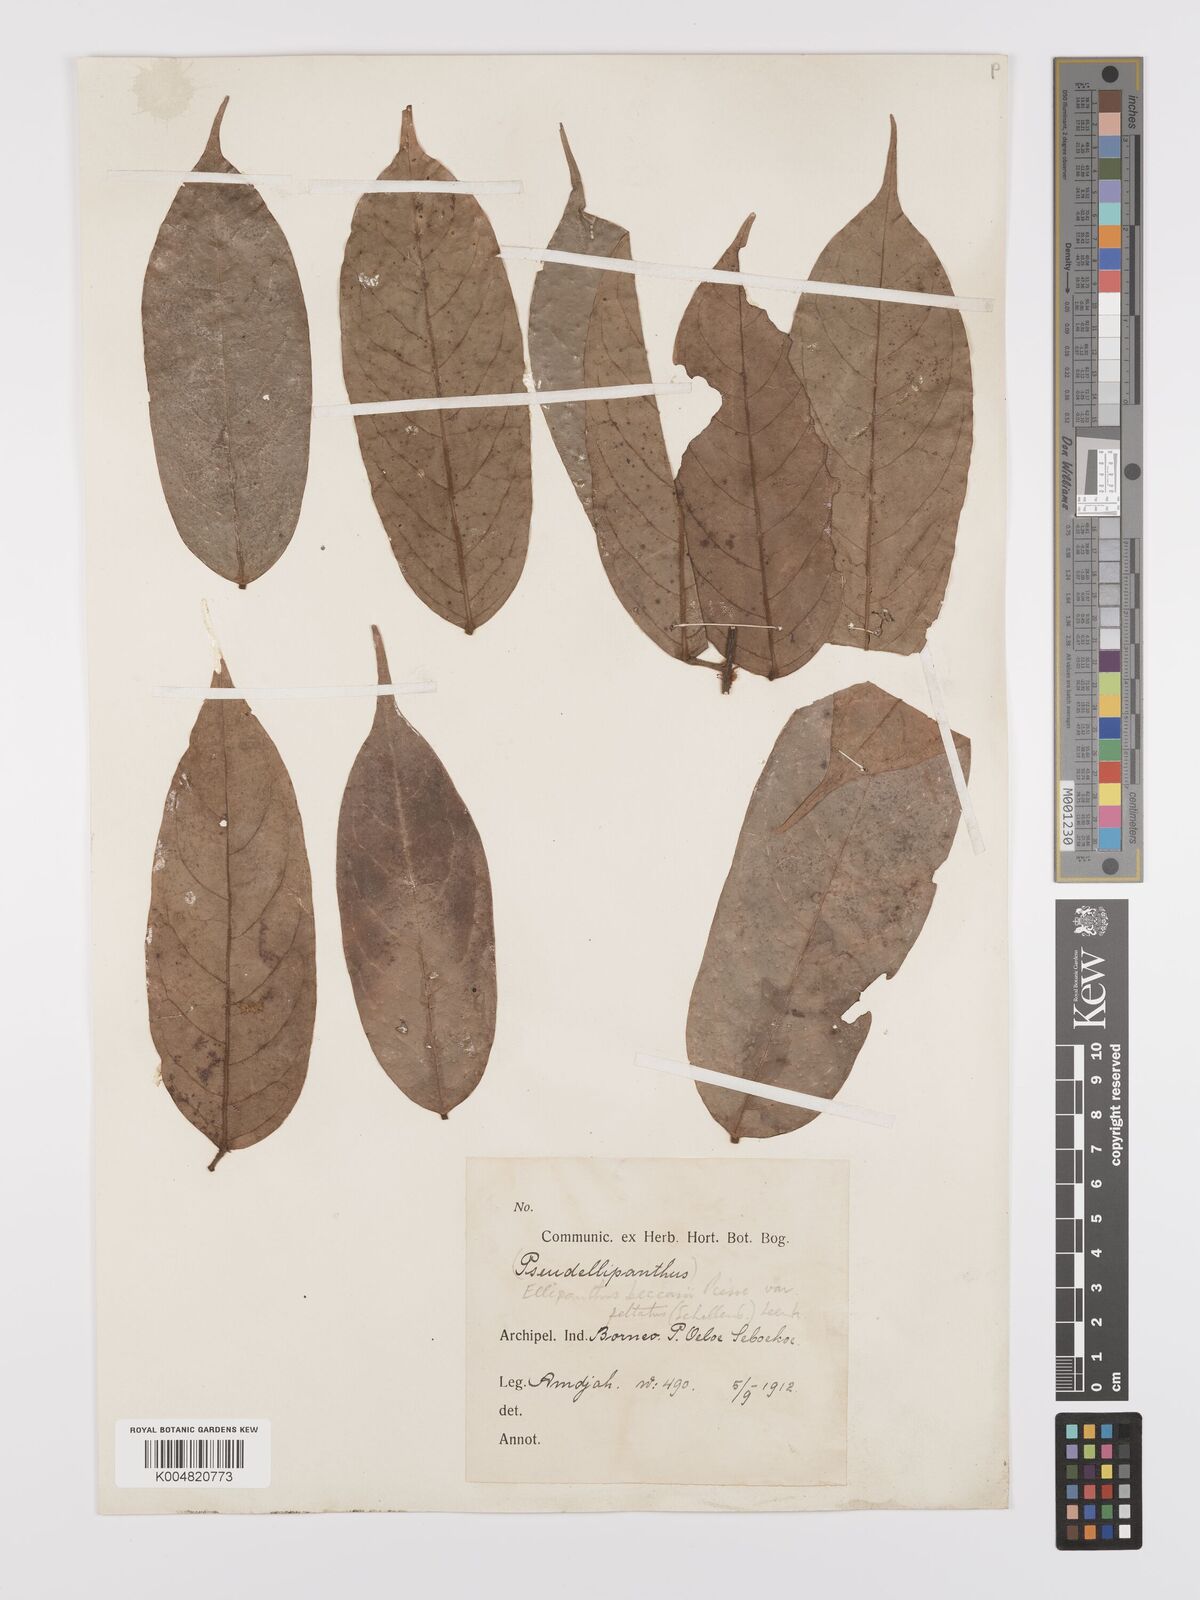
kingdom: Plantae
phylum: Tracheophyta
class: Magnoliopsida
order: Oxalidales
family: Connaraceae
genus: Ellipanthus
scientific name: Ellipanthus beccarii
